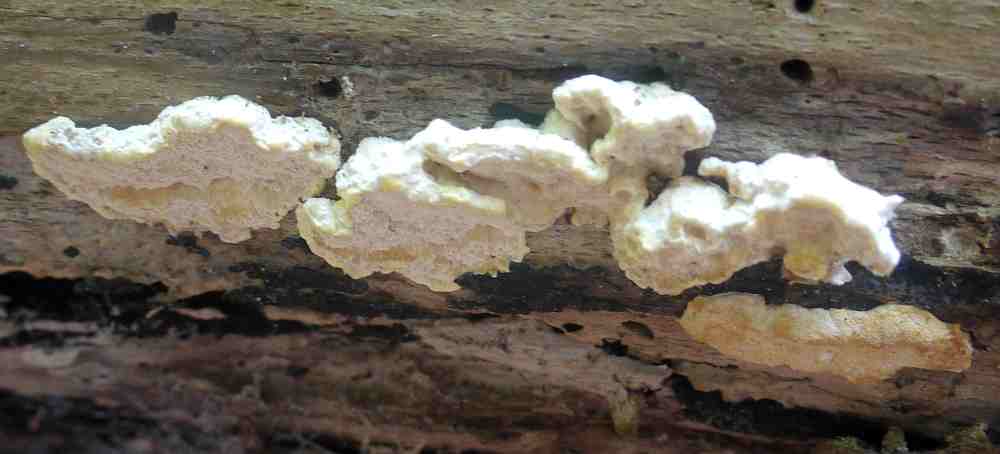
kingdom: Fungi
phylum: Basidiomycota
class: Agaricomycetes
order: Polyporales
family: Steccherinaceae
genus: Antrodiella
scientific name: Antrodiella serpula
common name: gulrandet elastikporesvamp
